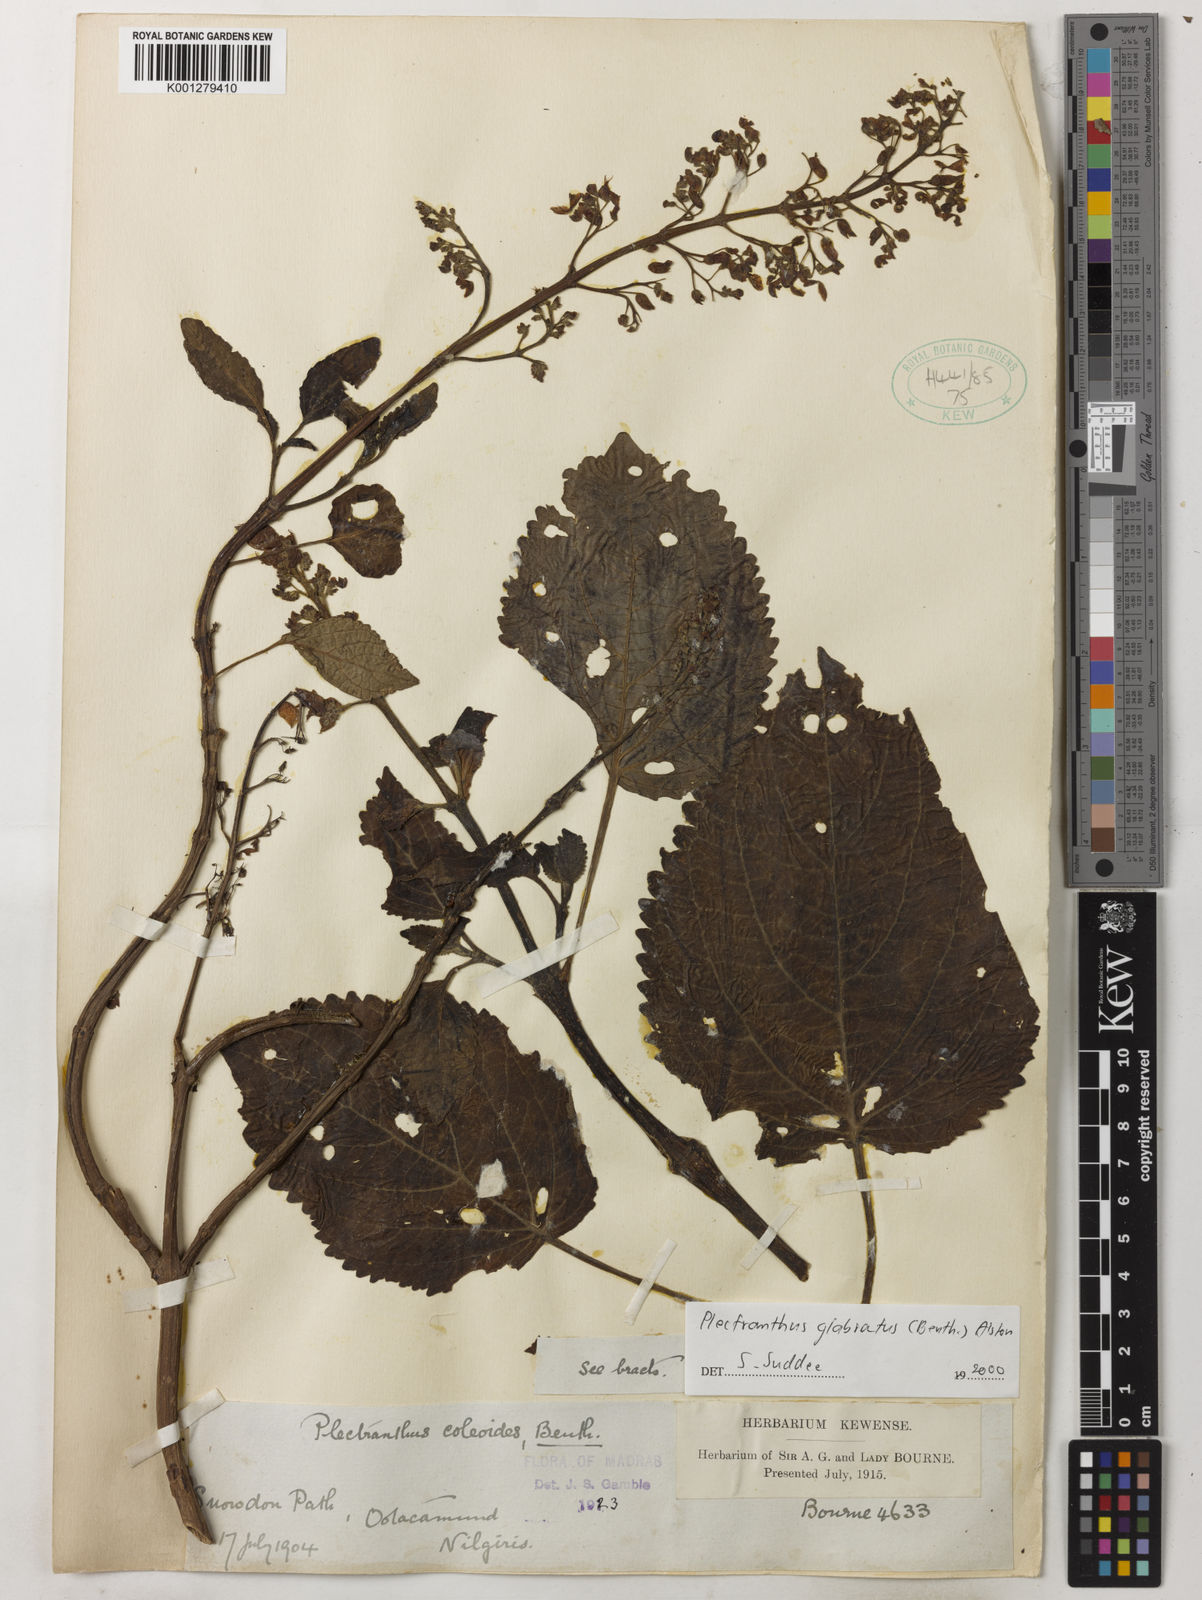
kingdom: Plantae
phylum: Tracheophyta
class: Magnoliopsida
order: Lamiales
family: Lamiaceae
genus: Coleus
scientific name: Coleus paniculatus
